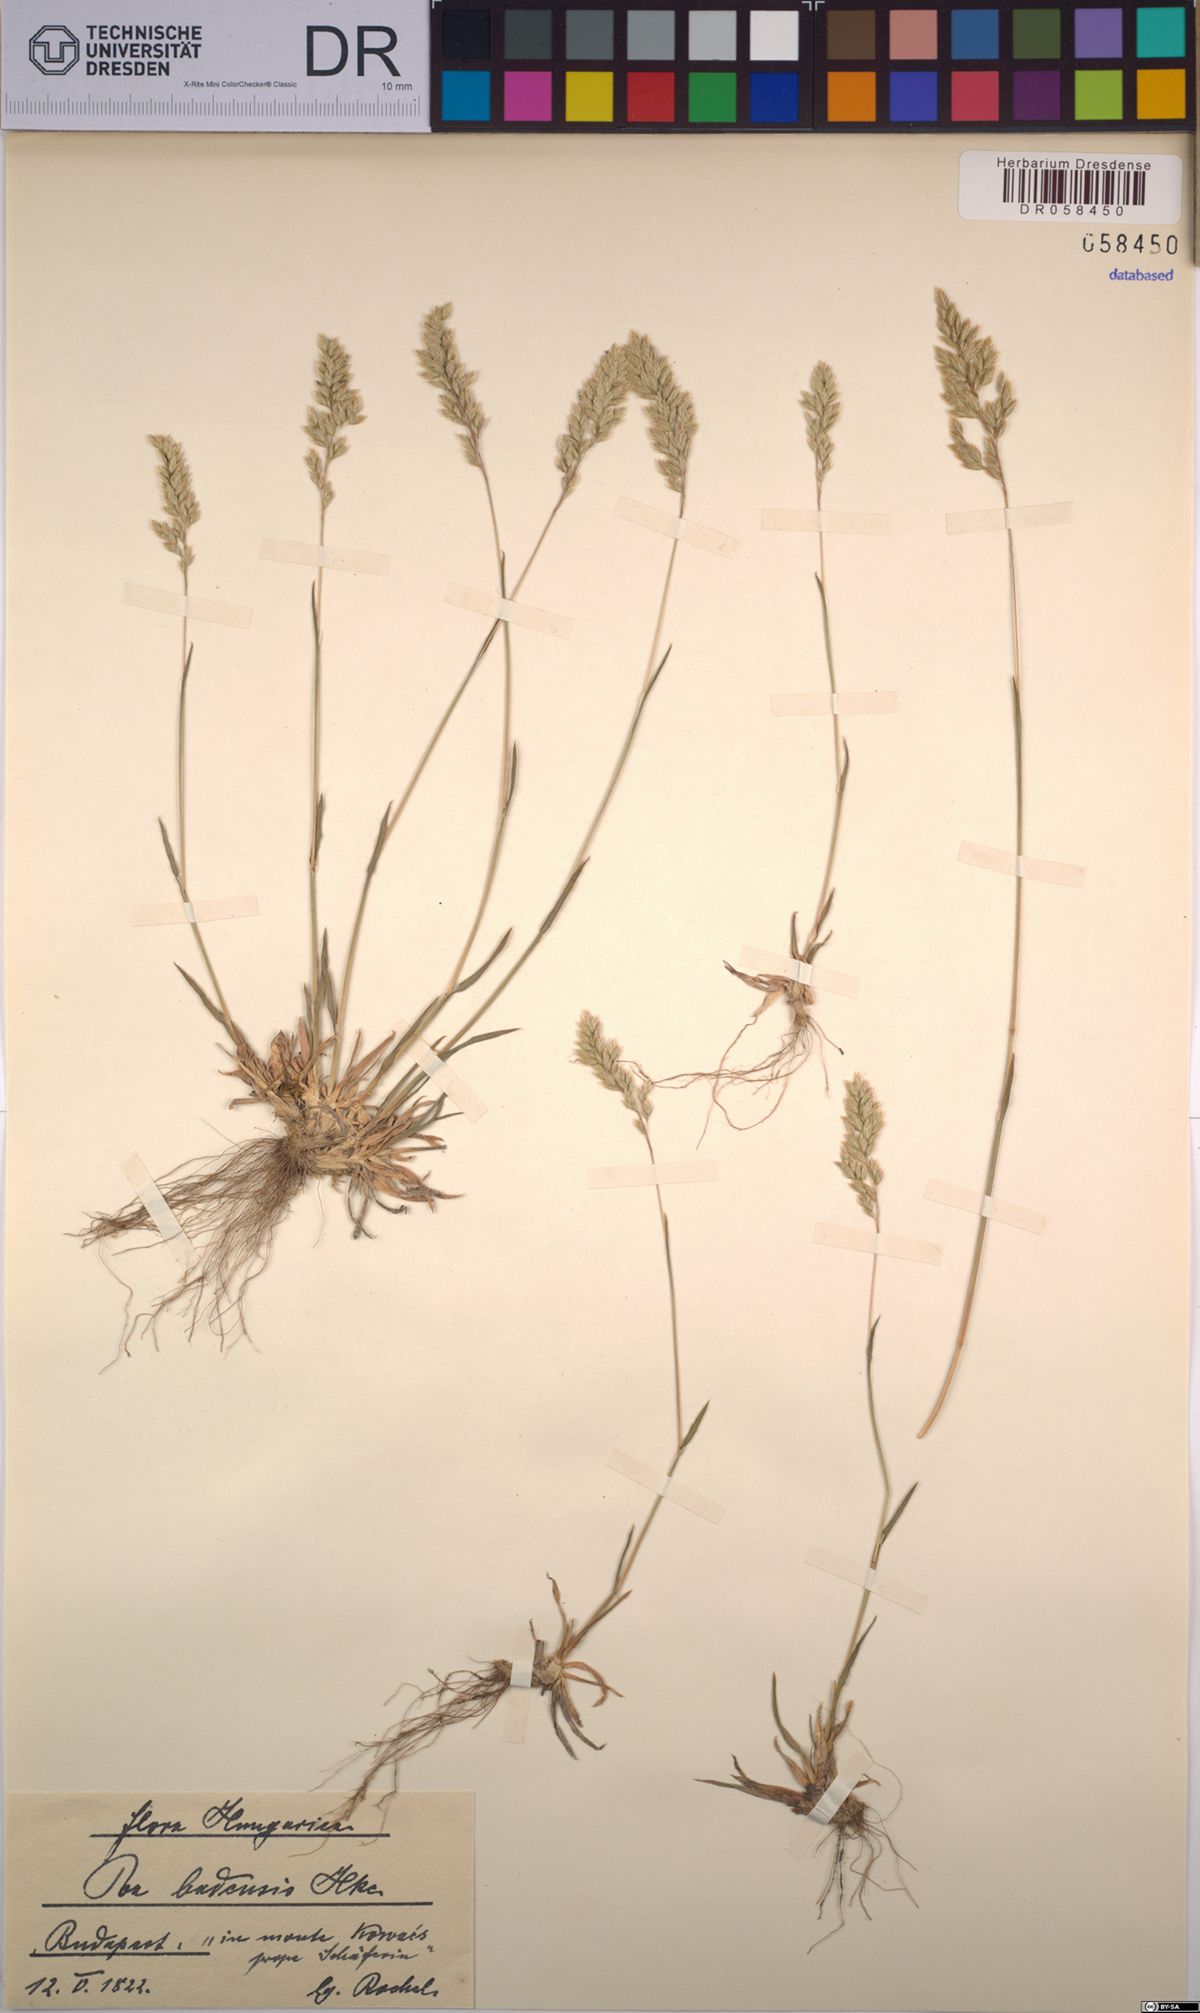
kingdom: Plantae
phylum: Tracheophyta
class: Liliopsida
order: Poales
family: Poaceae
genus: Poa
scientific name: Poa badensis
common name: Baden's bluegrass
